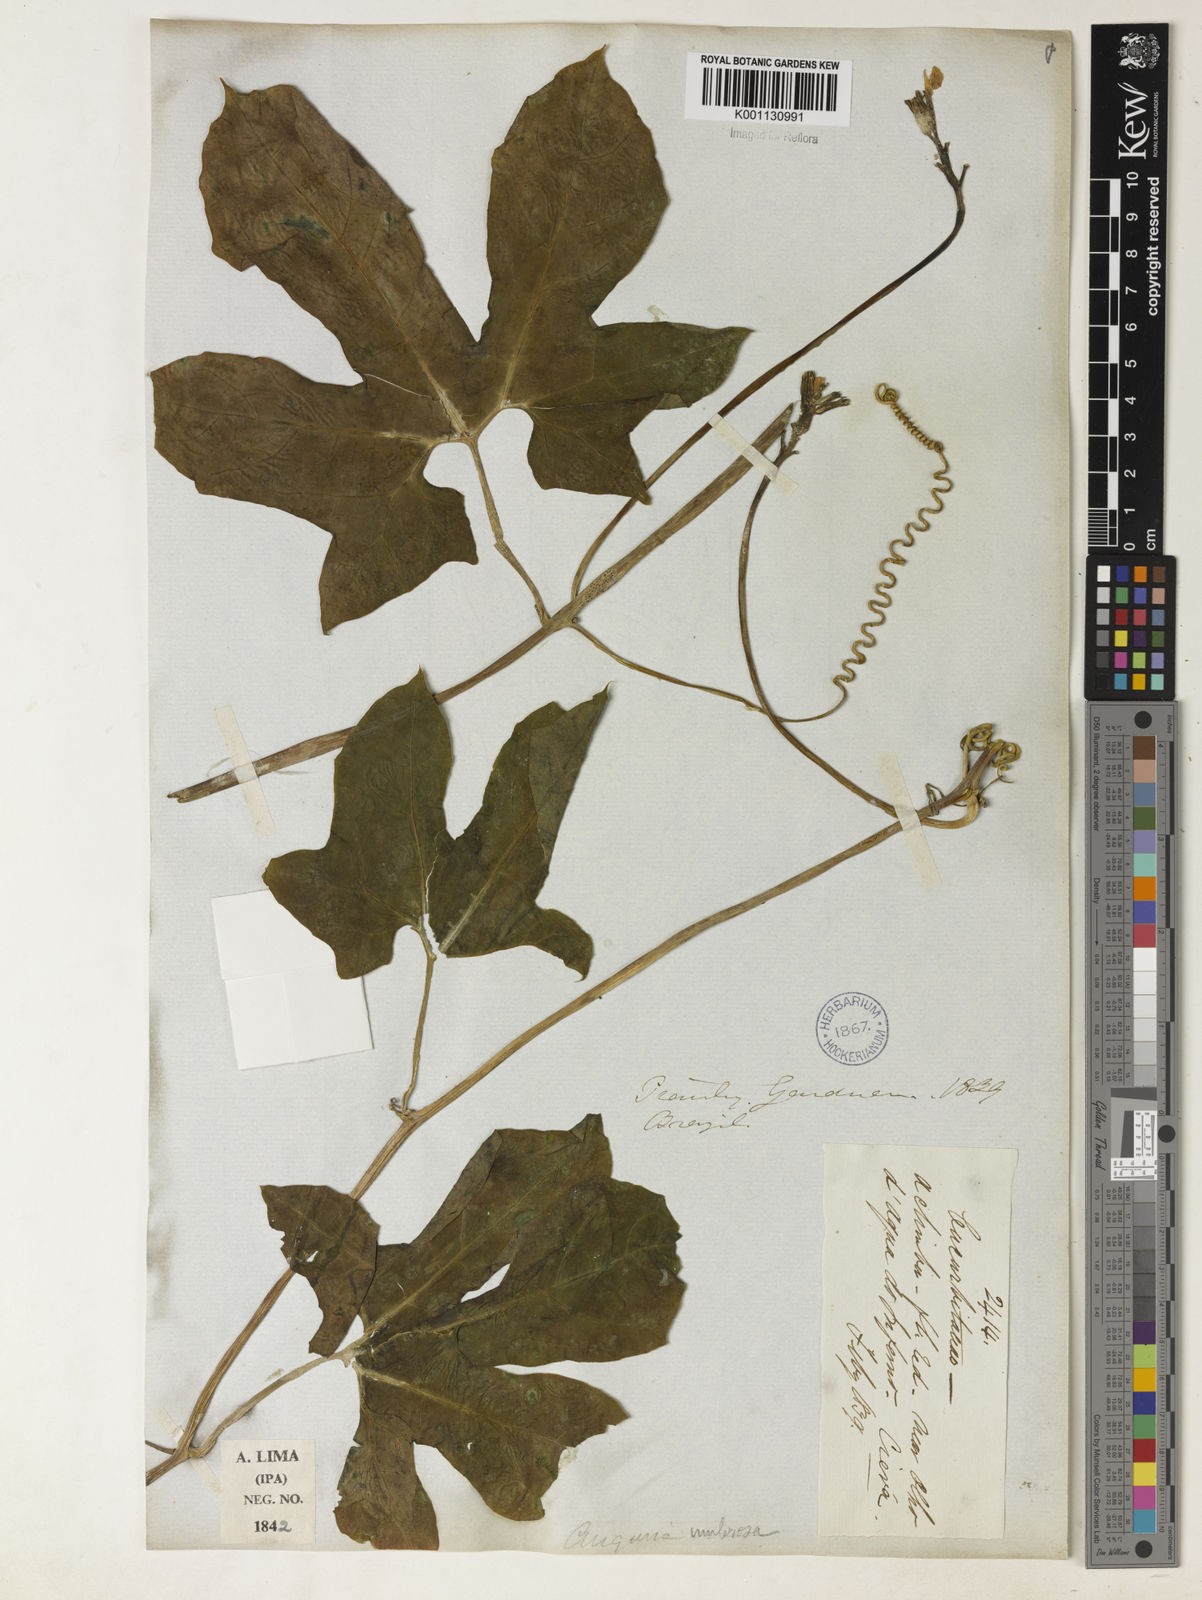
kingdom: Plantae
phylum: Tracheophyta
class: Magnoliopsida
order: Cucurbitales
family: Cucurbitaceae
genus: Psiguria
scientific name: Psiguria umbrosa
